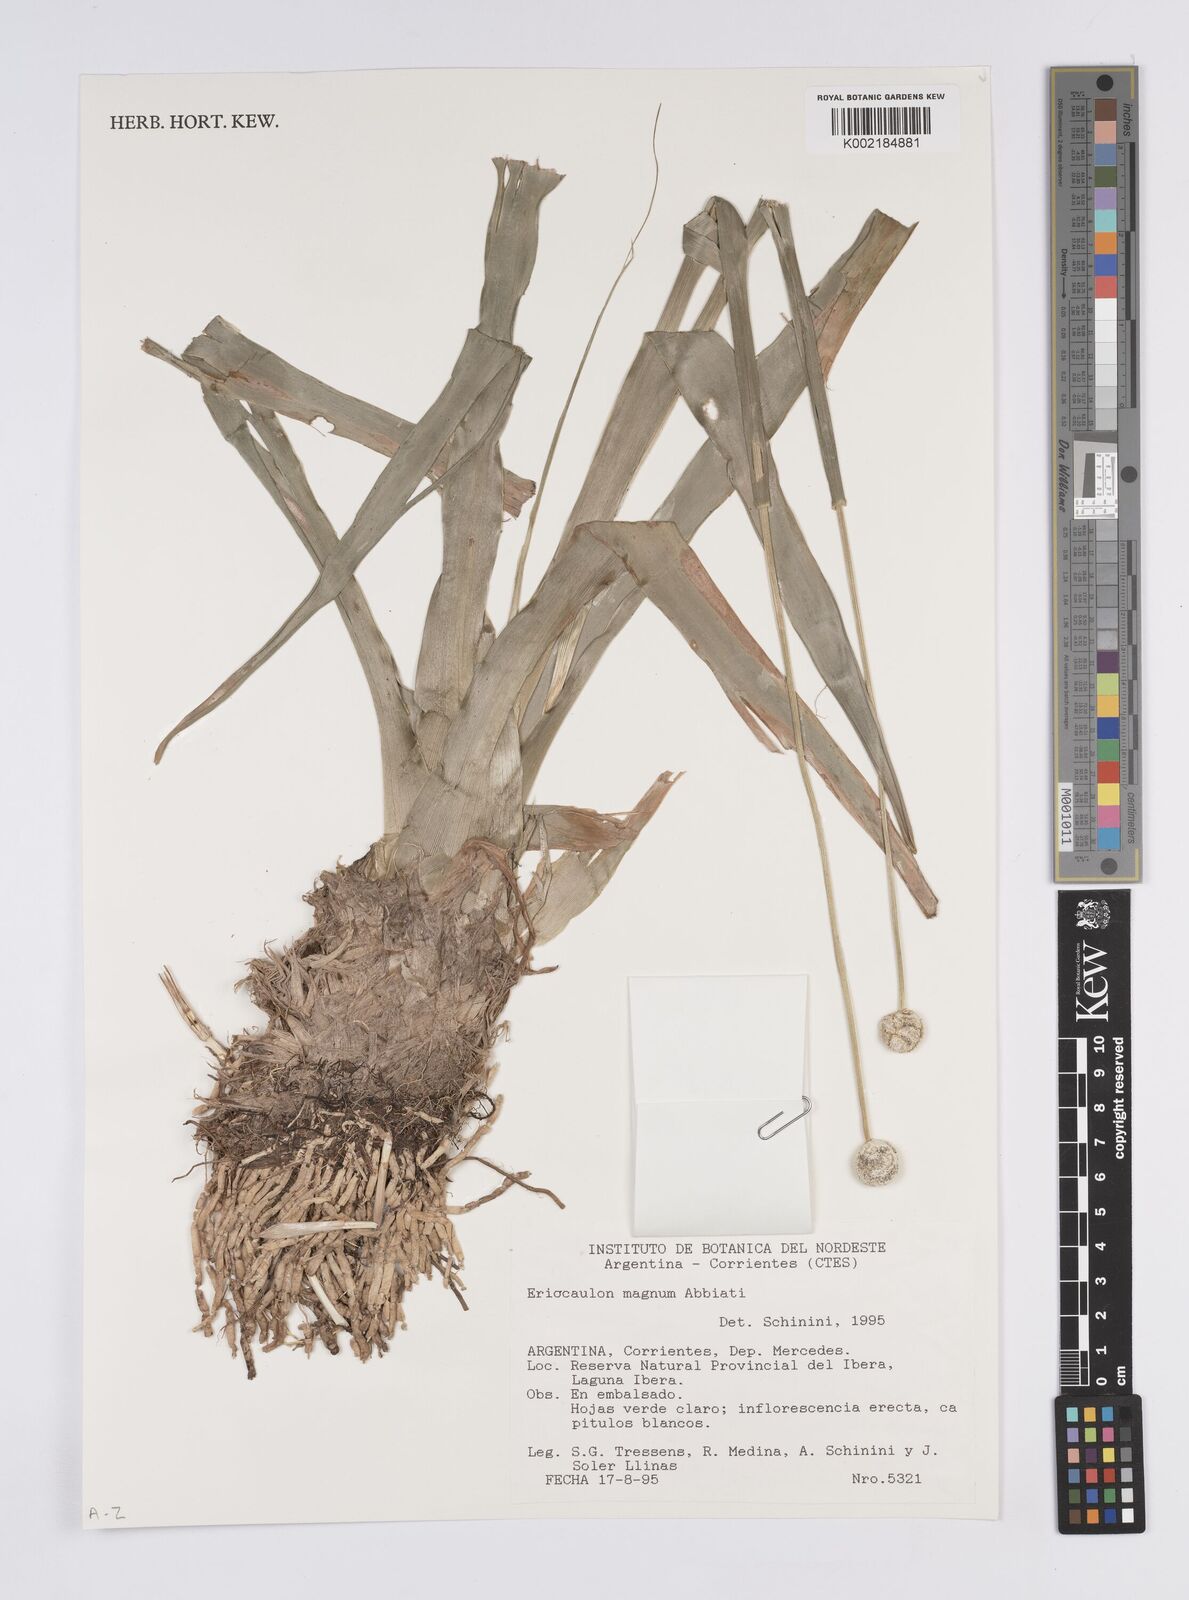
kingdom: Plantae
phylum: Tracheophyta
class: Liliopsida
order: Poales
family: Eriocaulaceae
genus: Eriocaulon
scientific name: Eriocaulon magnum
